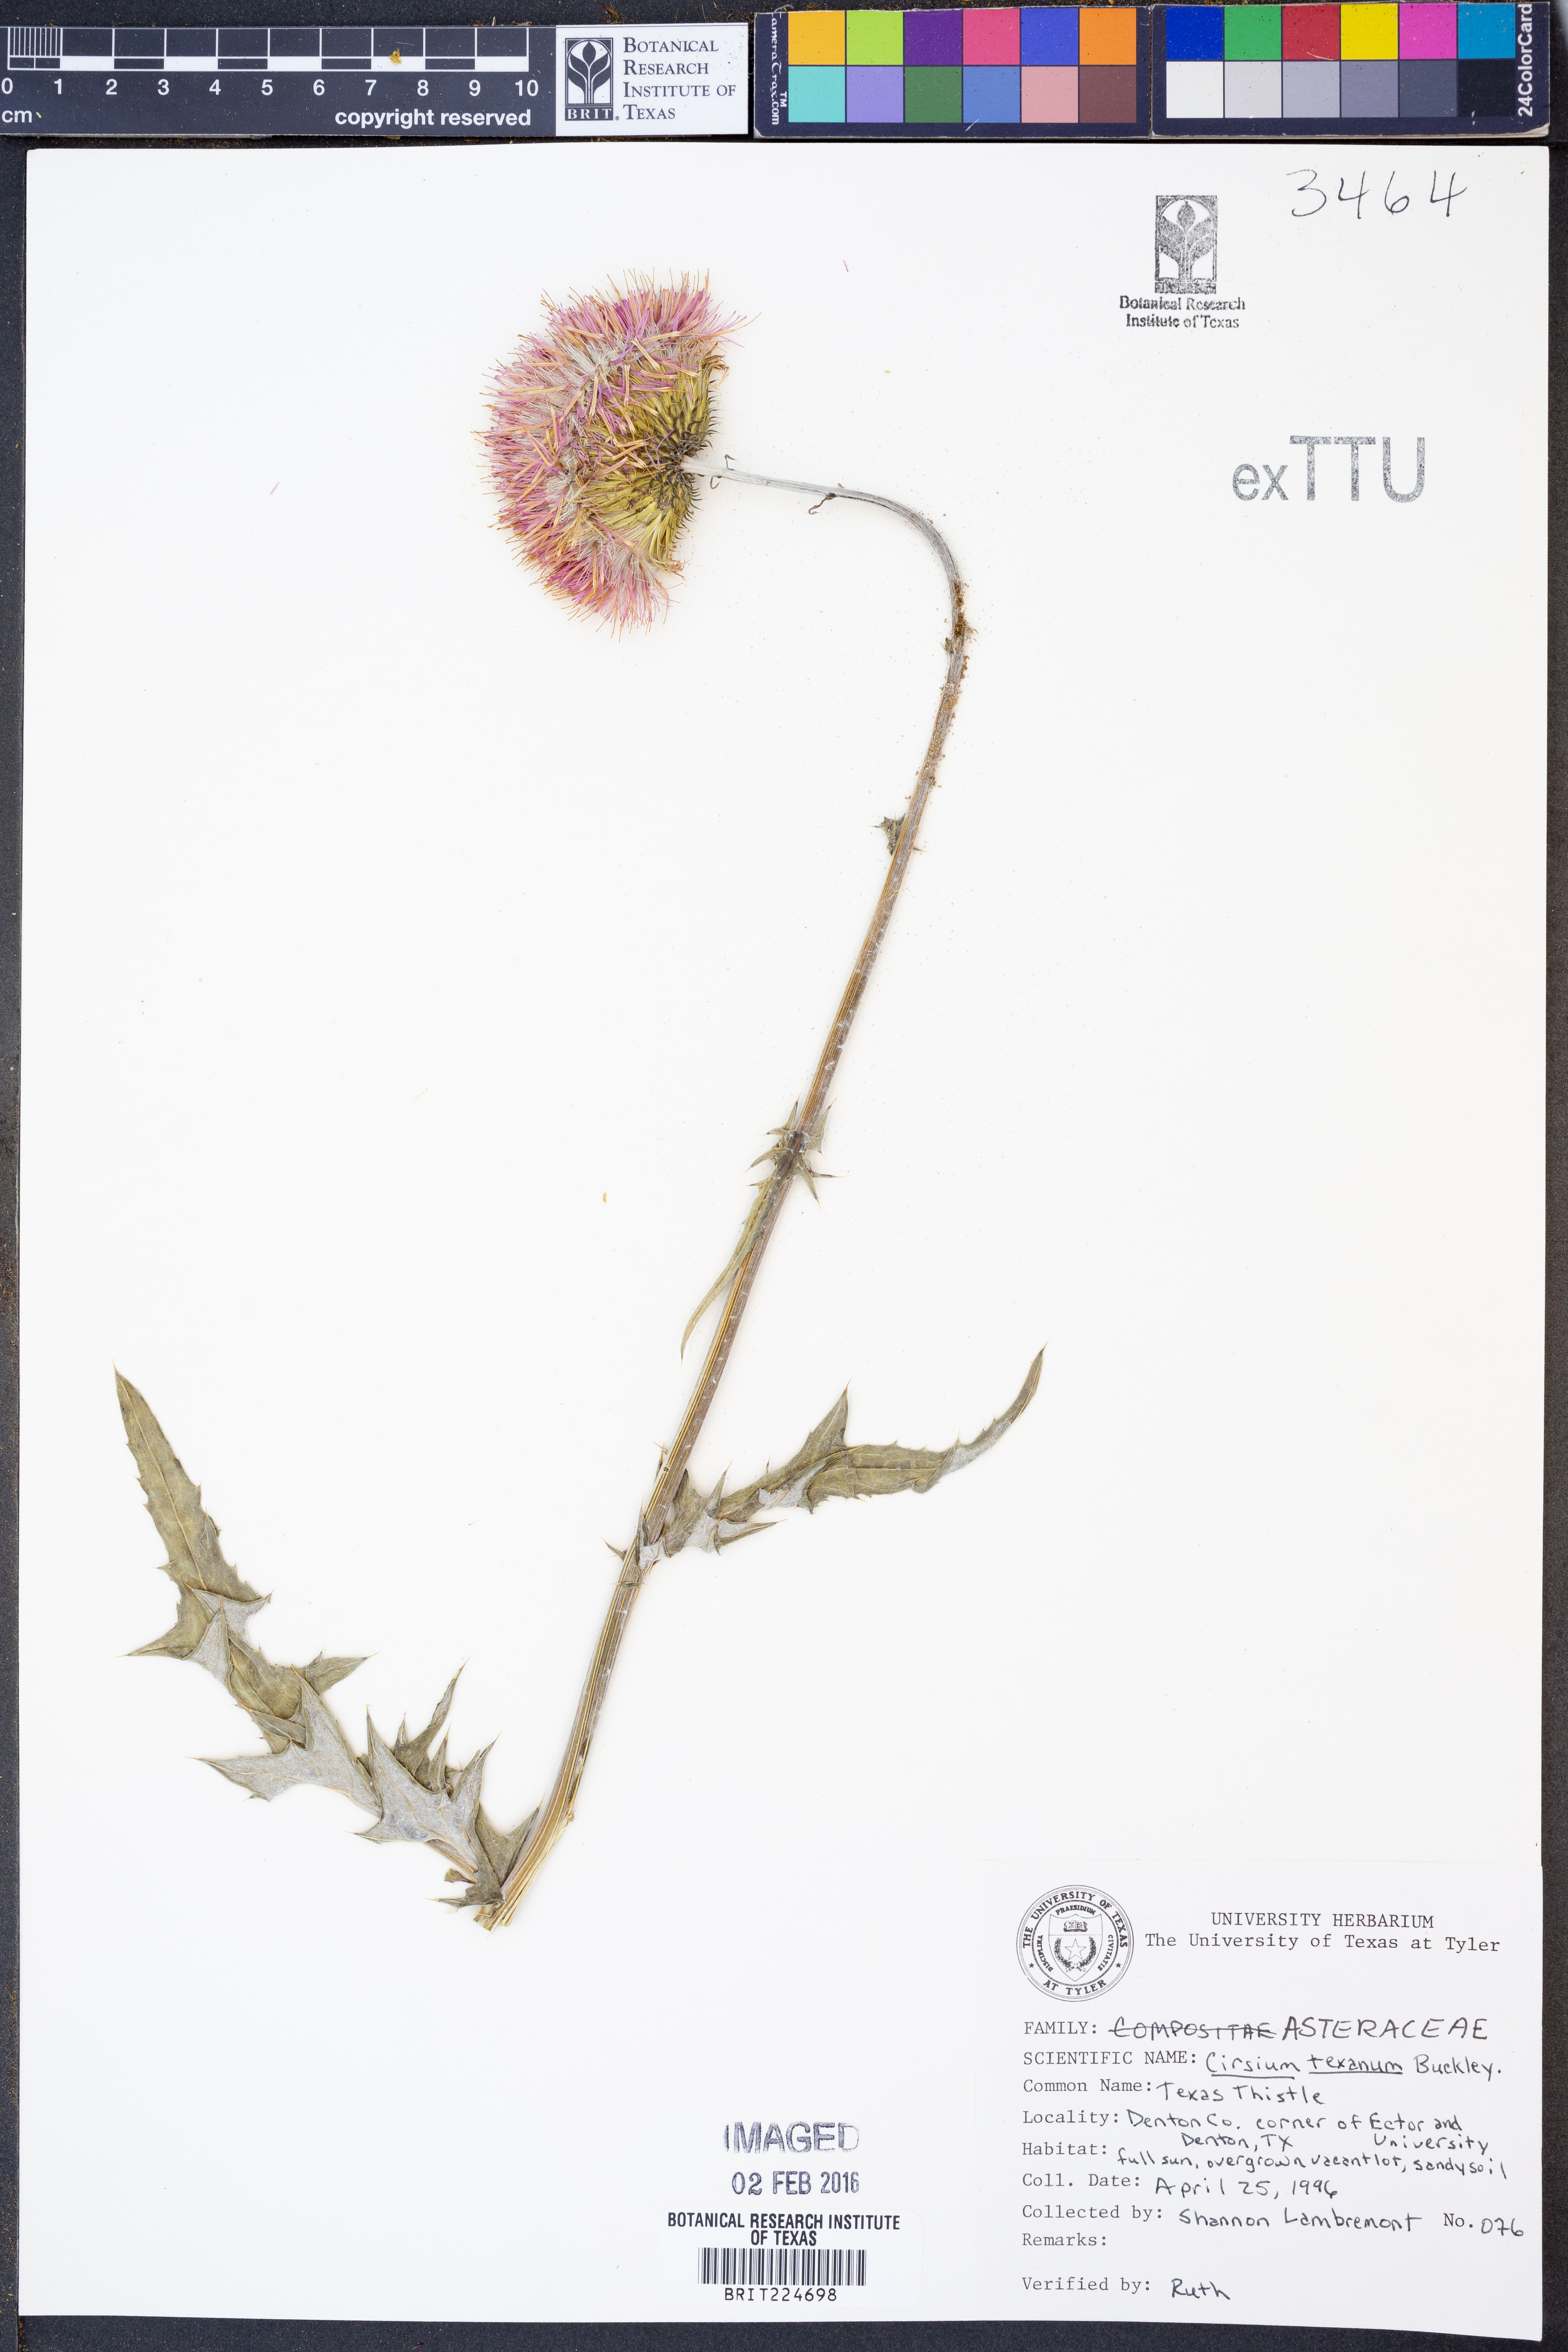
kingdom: Plantae
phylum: Tracheophyta
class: Magnoliopsida
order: Asterales
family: Asteraceae
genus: Cirsium
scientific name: Cirsium texanum
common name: Texas purple thistle
